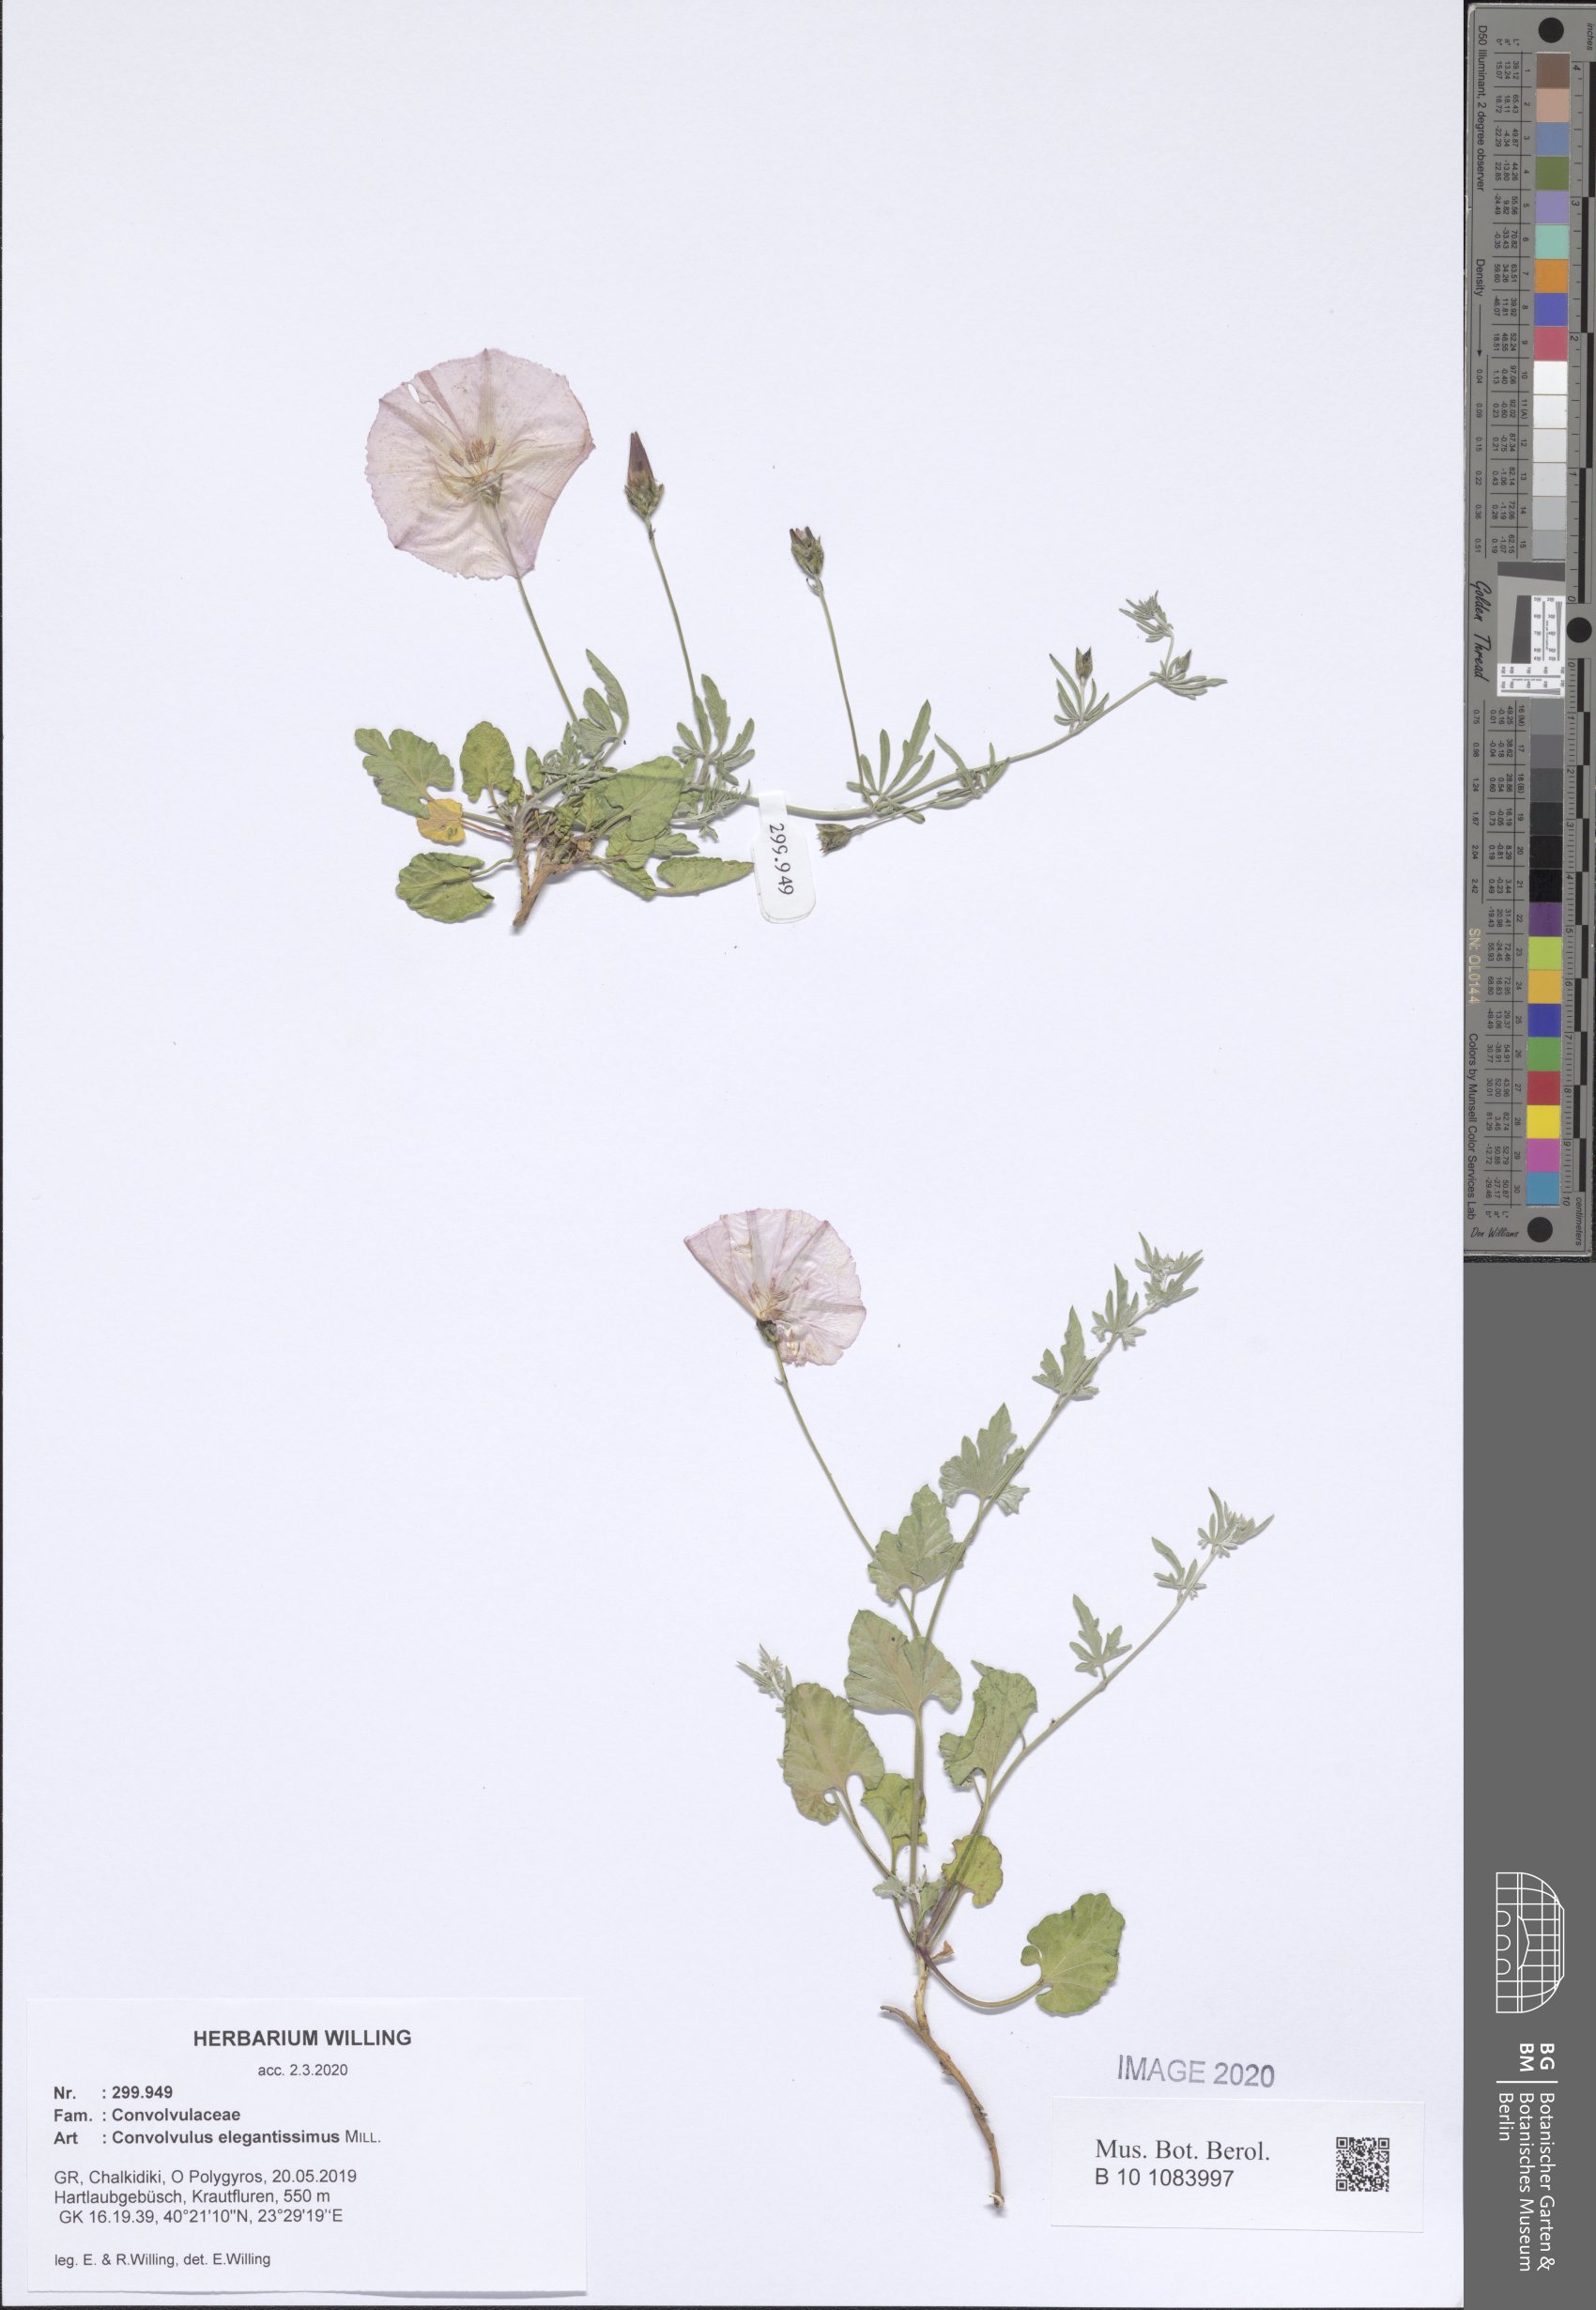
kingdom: Plantae
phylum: Tracheophyta
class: Magnoliopsida
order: Solanales
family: Convolvulaceae
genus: Convolvulus
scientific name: Convolvulus elegantissimus
